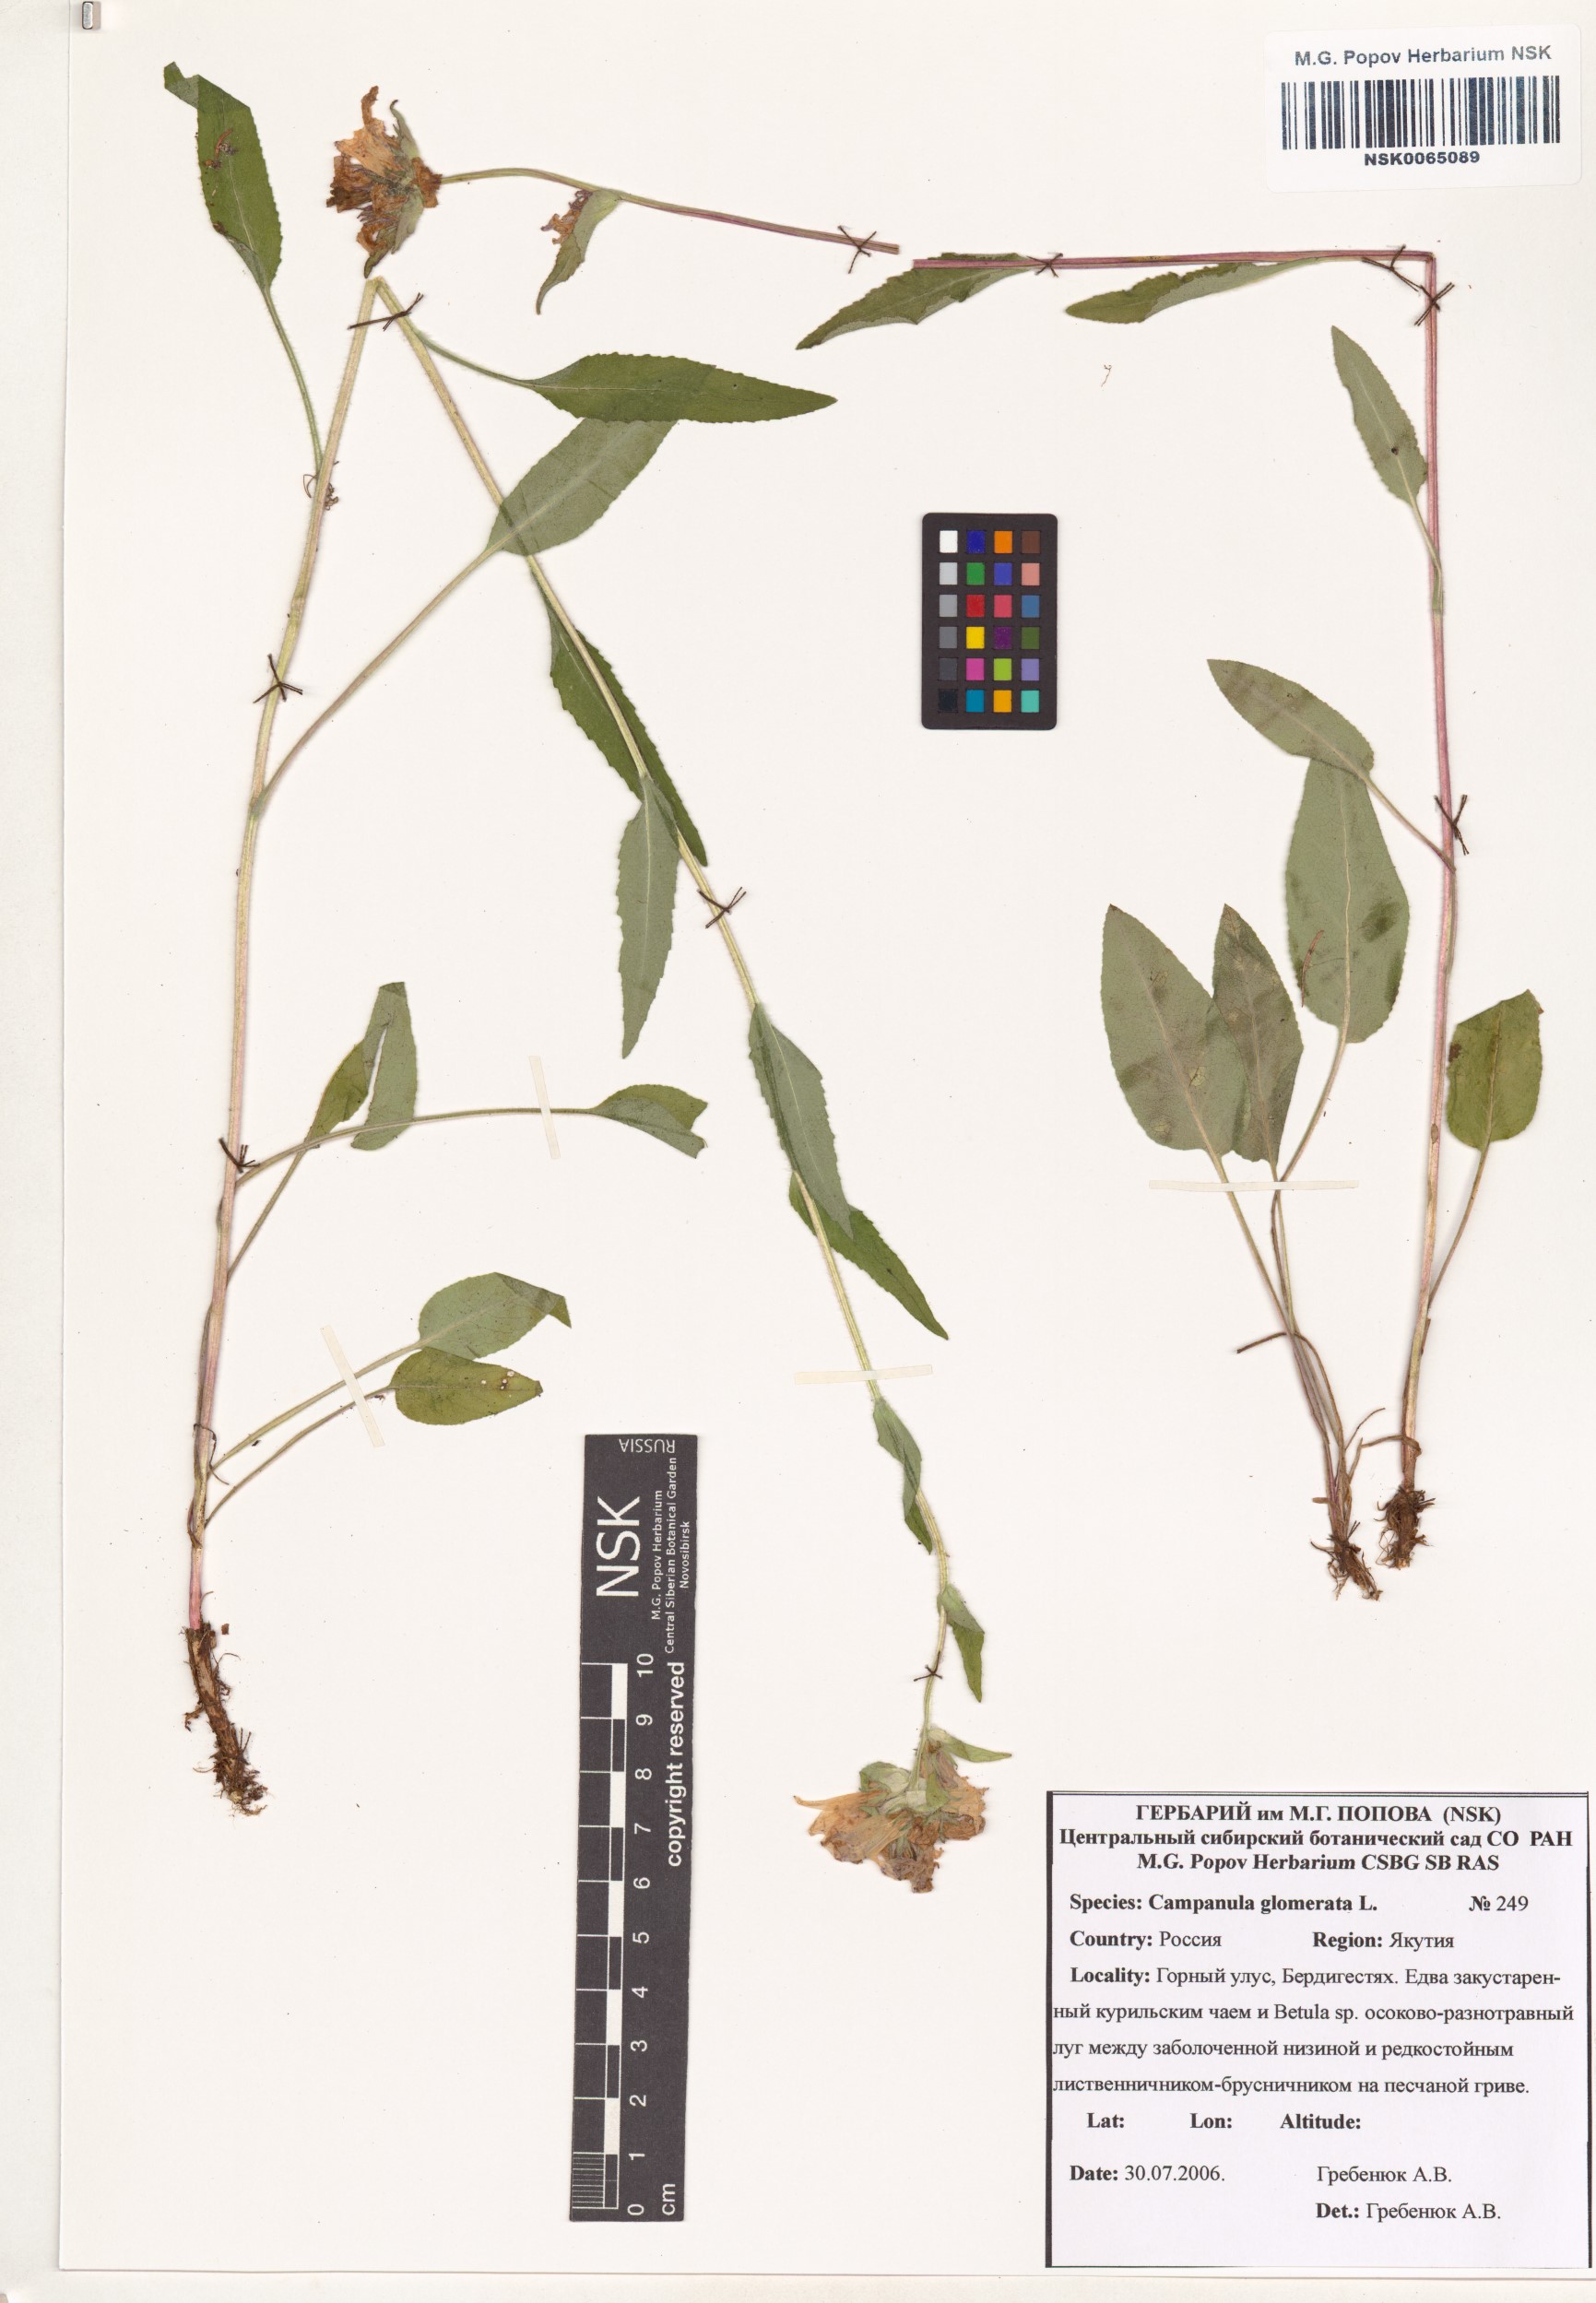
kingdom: Plantae
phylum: Tracheophyta
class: Magnoliopsida
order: Asterales
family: Campanulaceae
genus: Campanula
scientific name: Campanula glomerata
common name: Clustered bellflower
